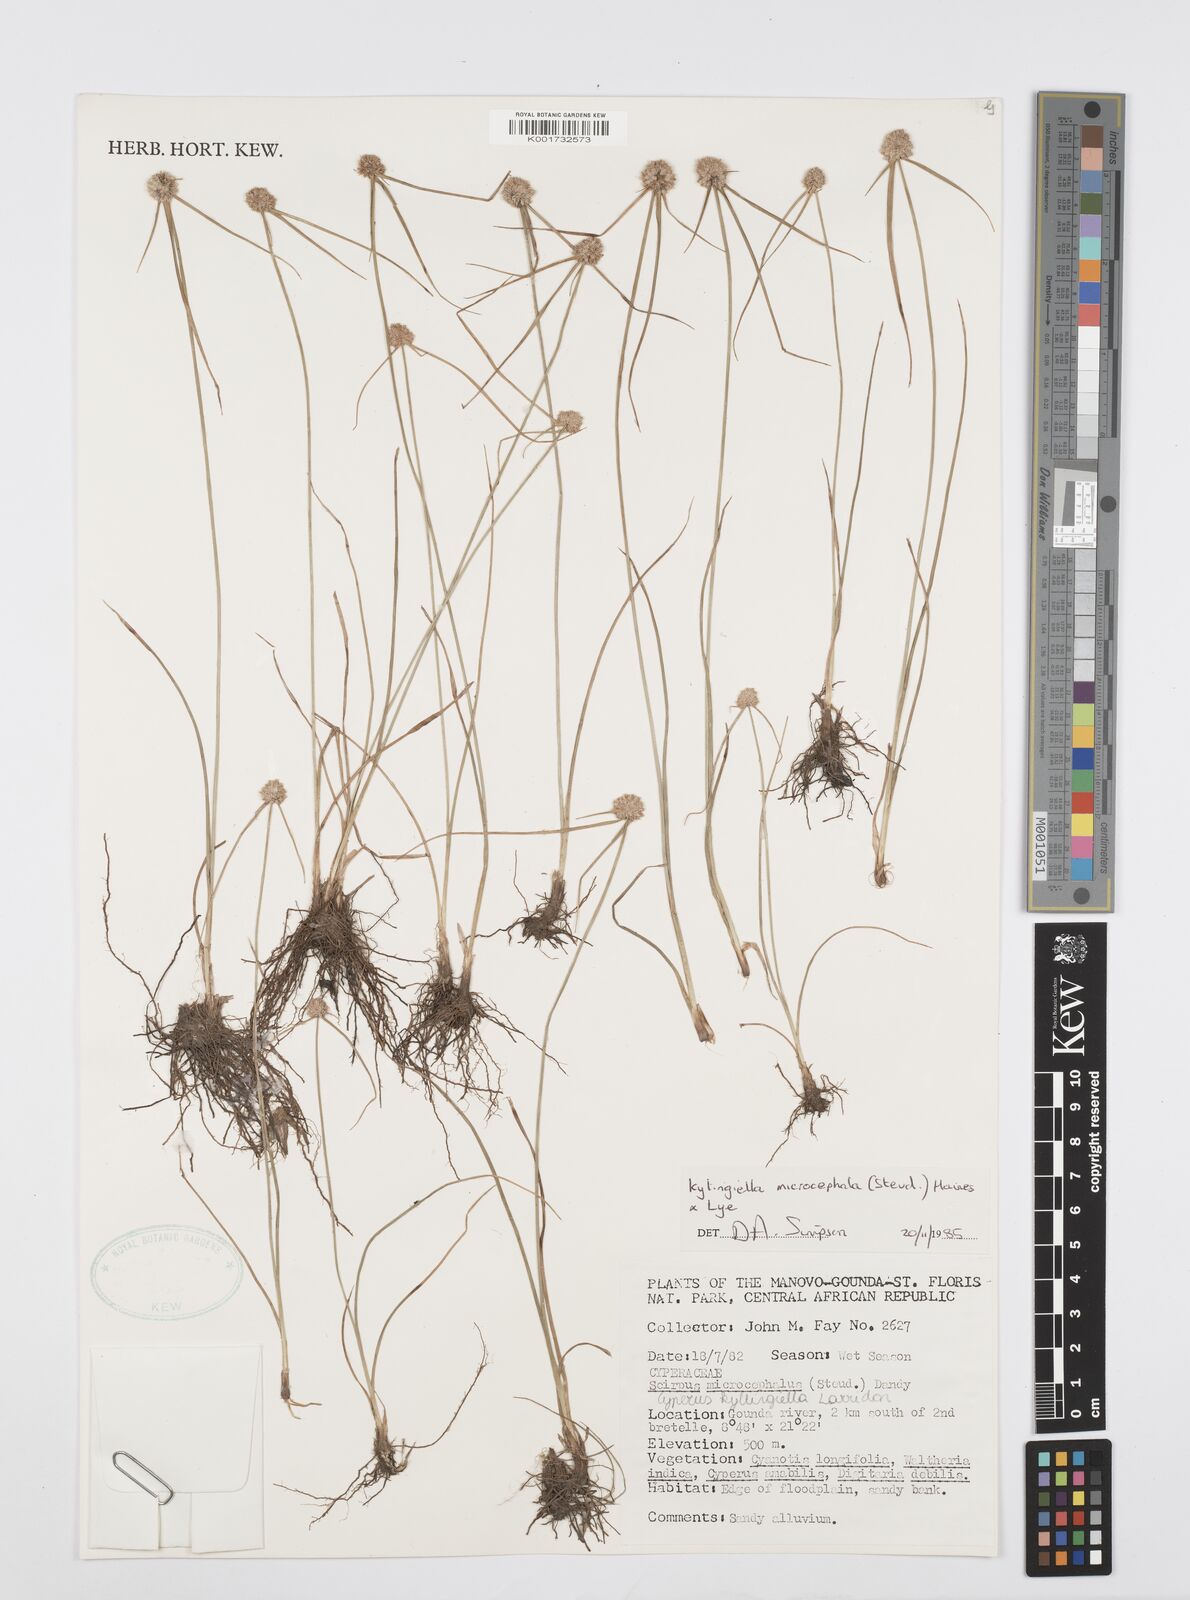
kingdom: Plantae
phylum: Tracheophyta
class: Liliopsida
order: Poales
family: Cyperaceae
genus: Cyperus
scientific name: Cyperus microcephalus
